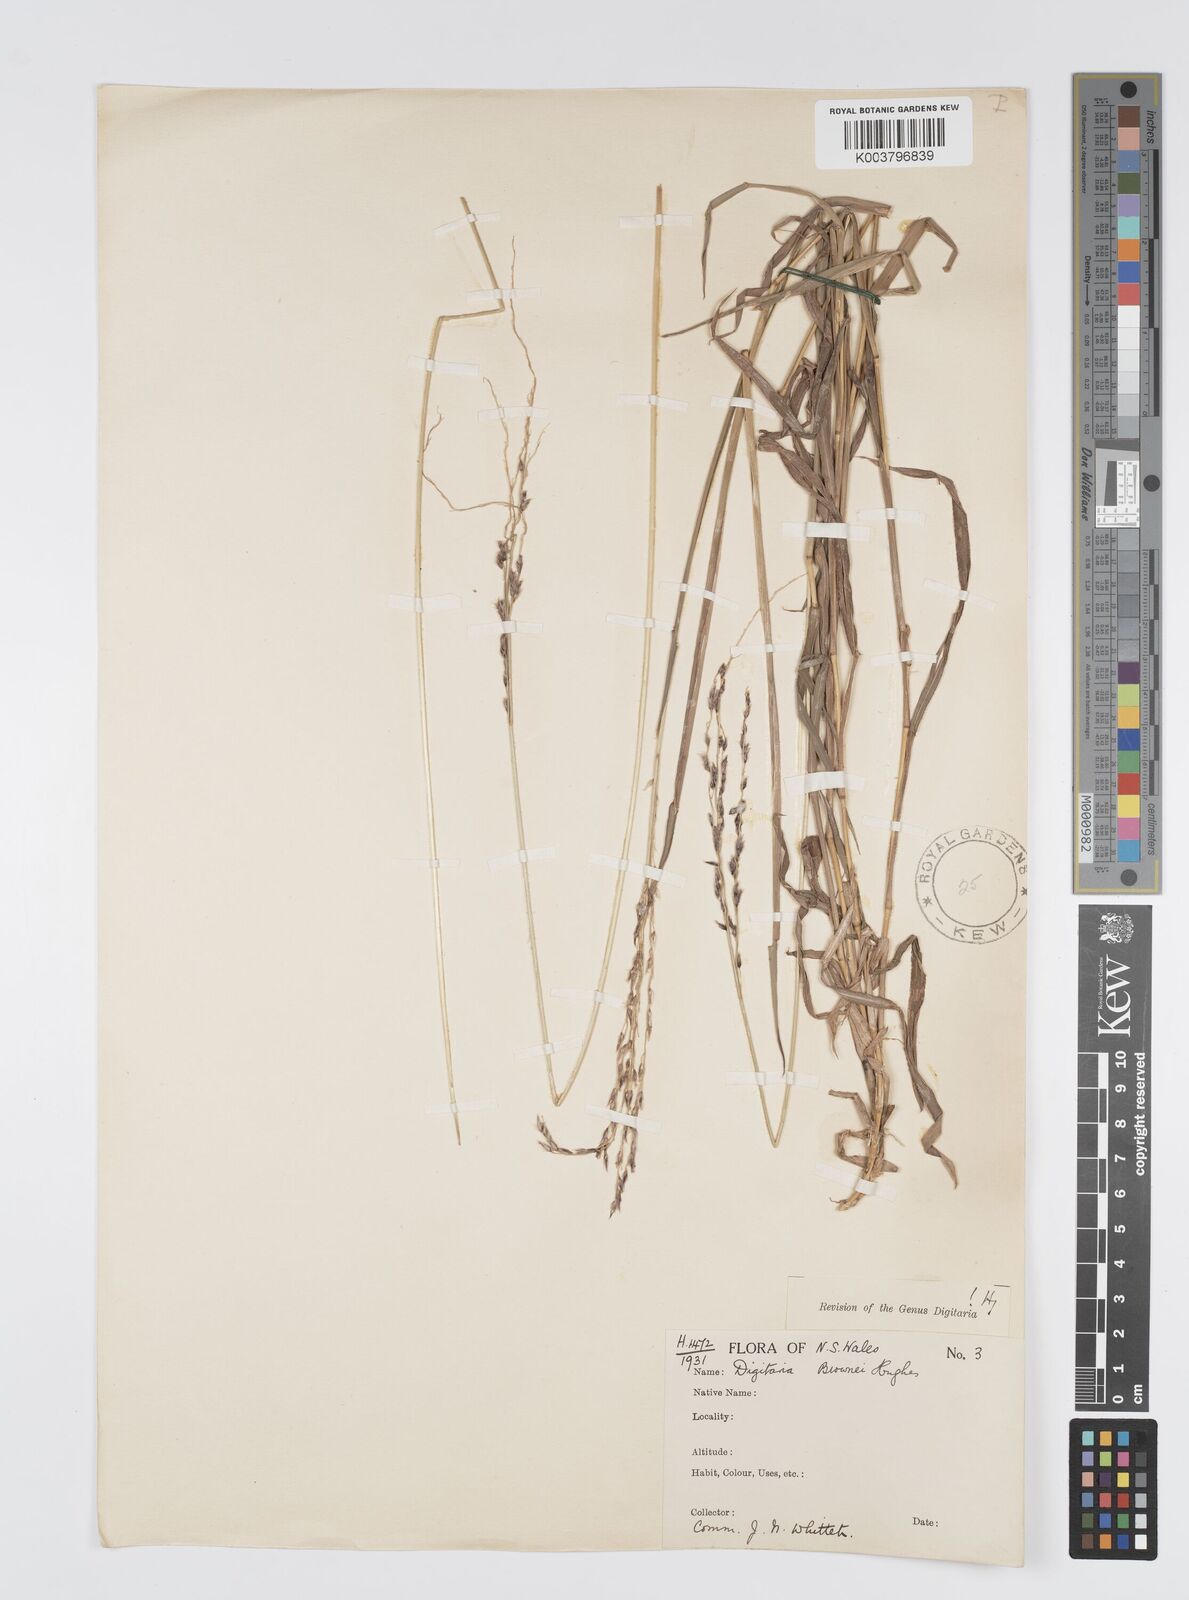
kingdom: Plantae
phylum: Tracheophyta
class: Liliopsida
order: Poales
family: Poaceae
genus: Digitaria
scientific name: Digitaria brownii
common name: Cotton grass
